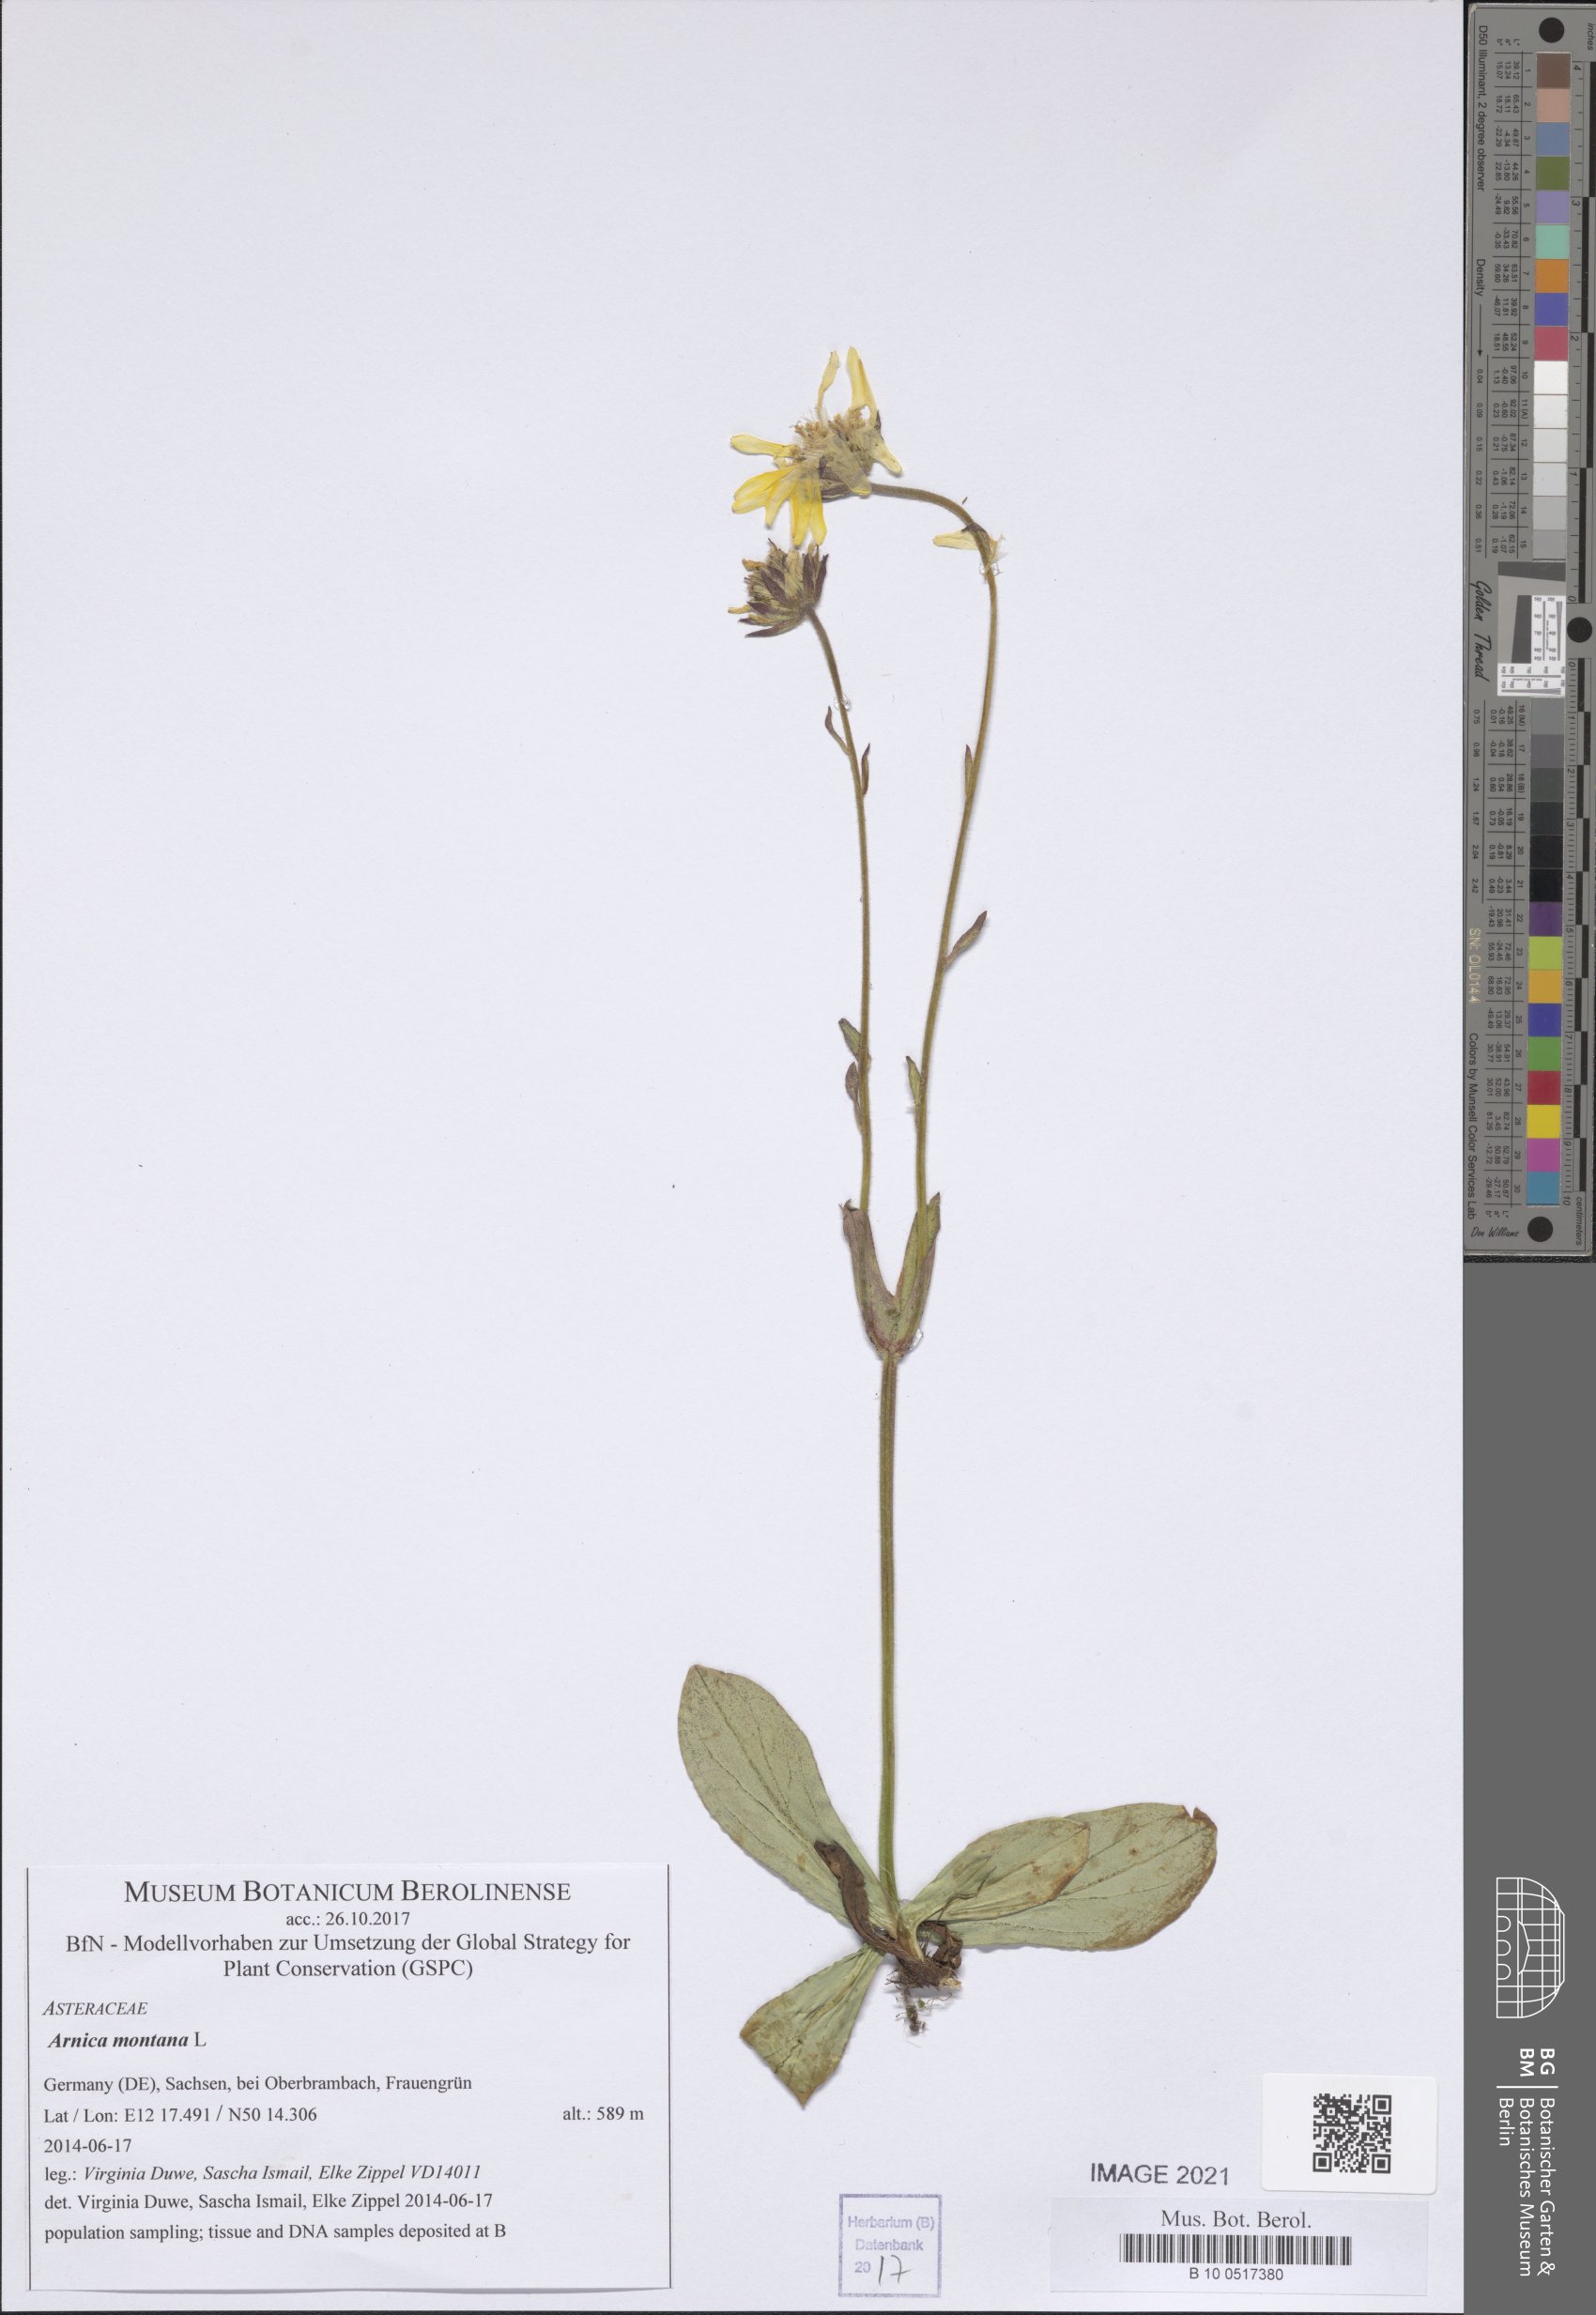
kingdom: Plantae
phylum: Tracheophyta
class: Magnoliopsida
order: Asterales
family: Asteraceae
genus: Arnica
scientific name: Arnica montana
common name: Leopard's bane
